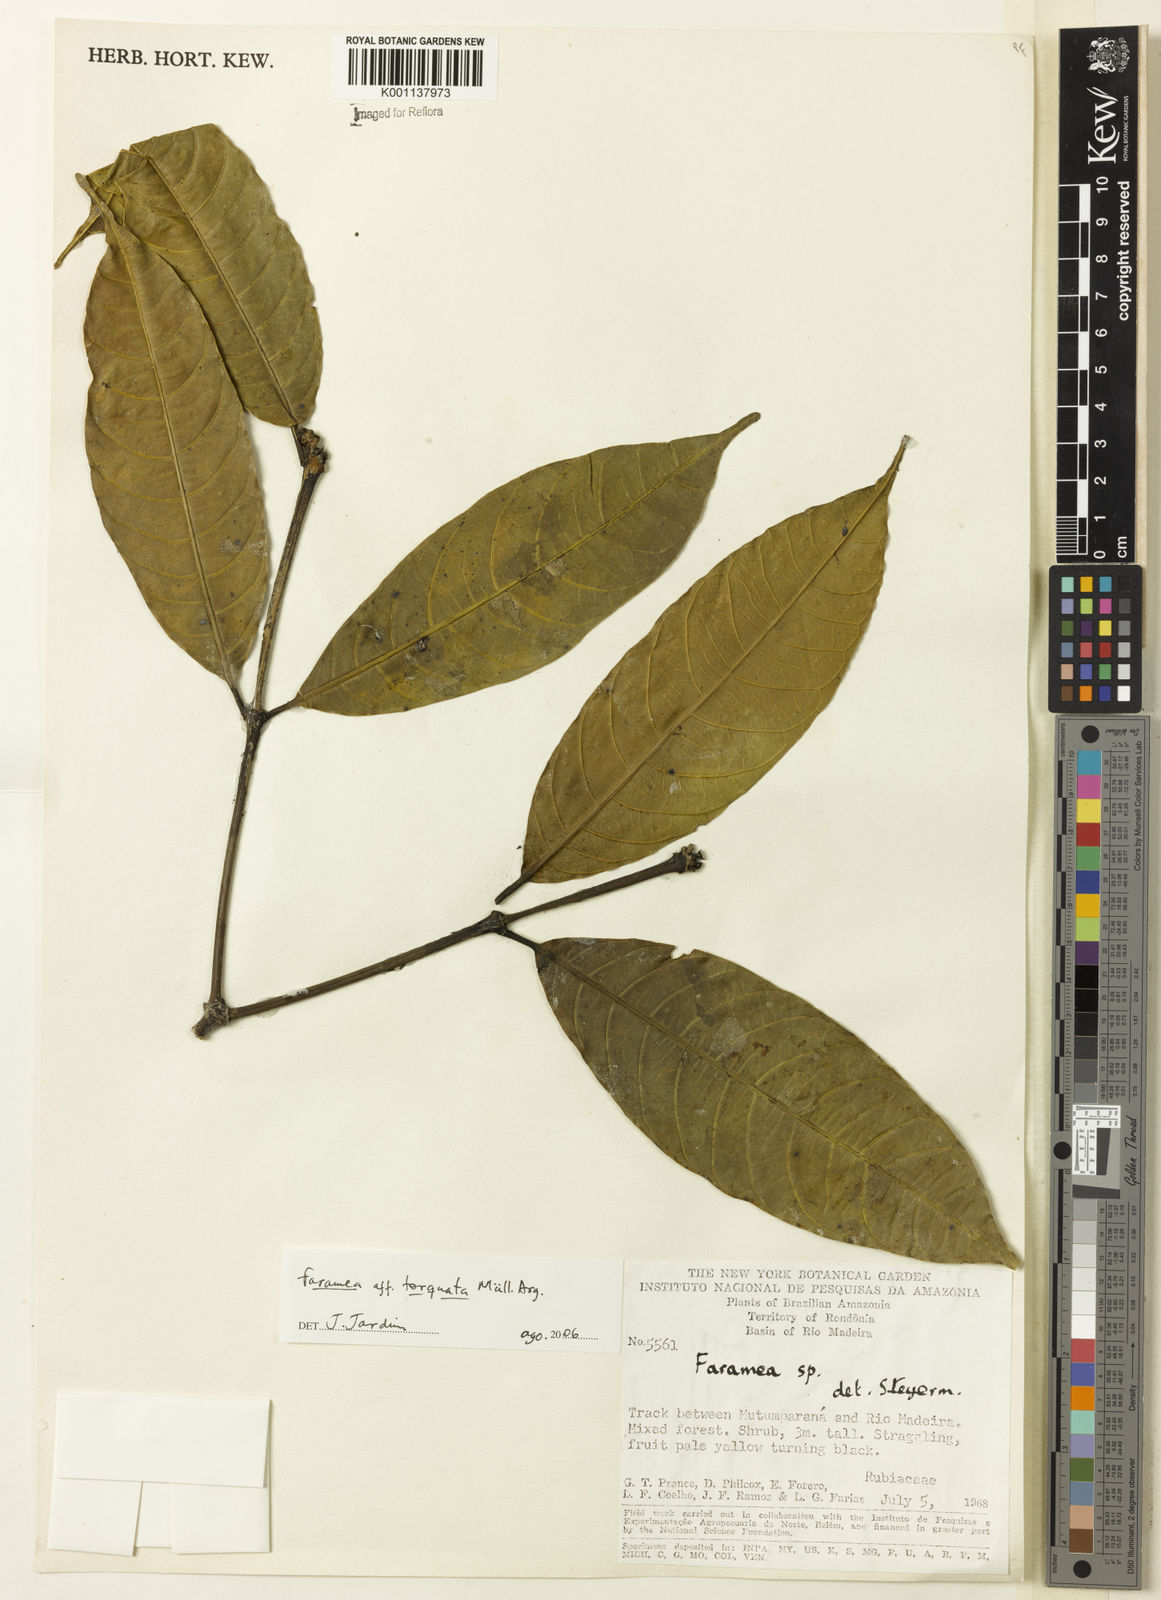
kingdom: Plantae
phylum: Tracheophyta
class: Magnoliopsida
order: Gentianales
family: Rubiaceae
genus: Faramea
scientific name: Faramea
